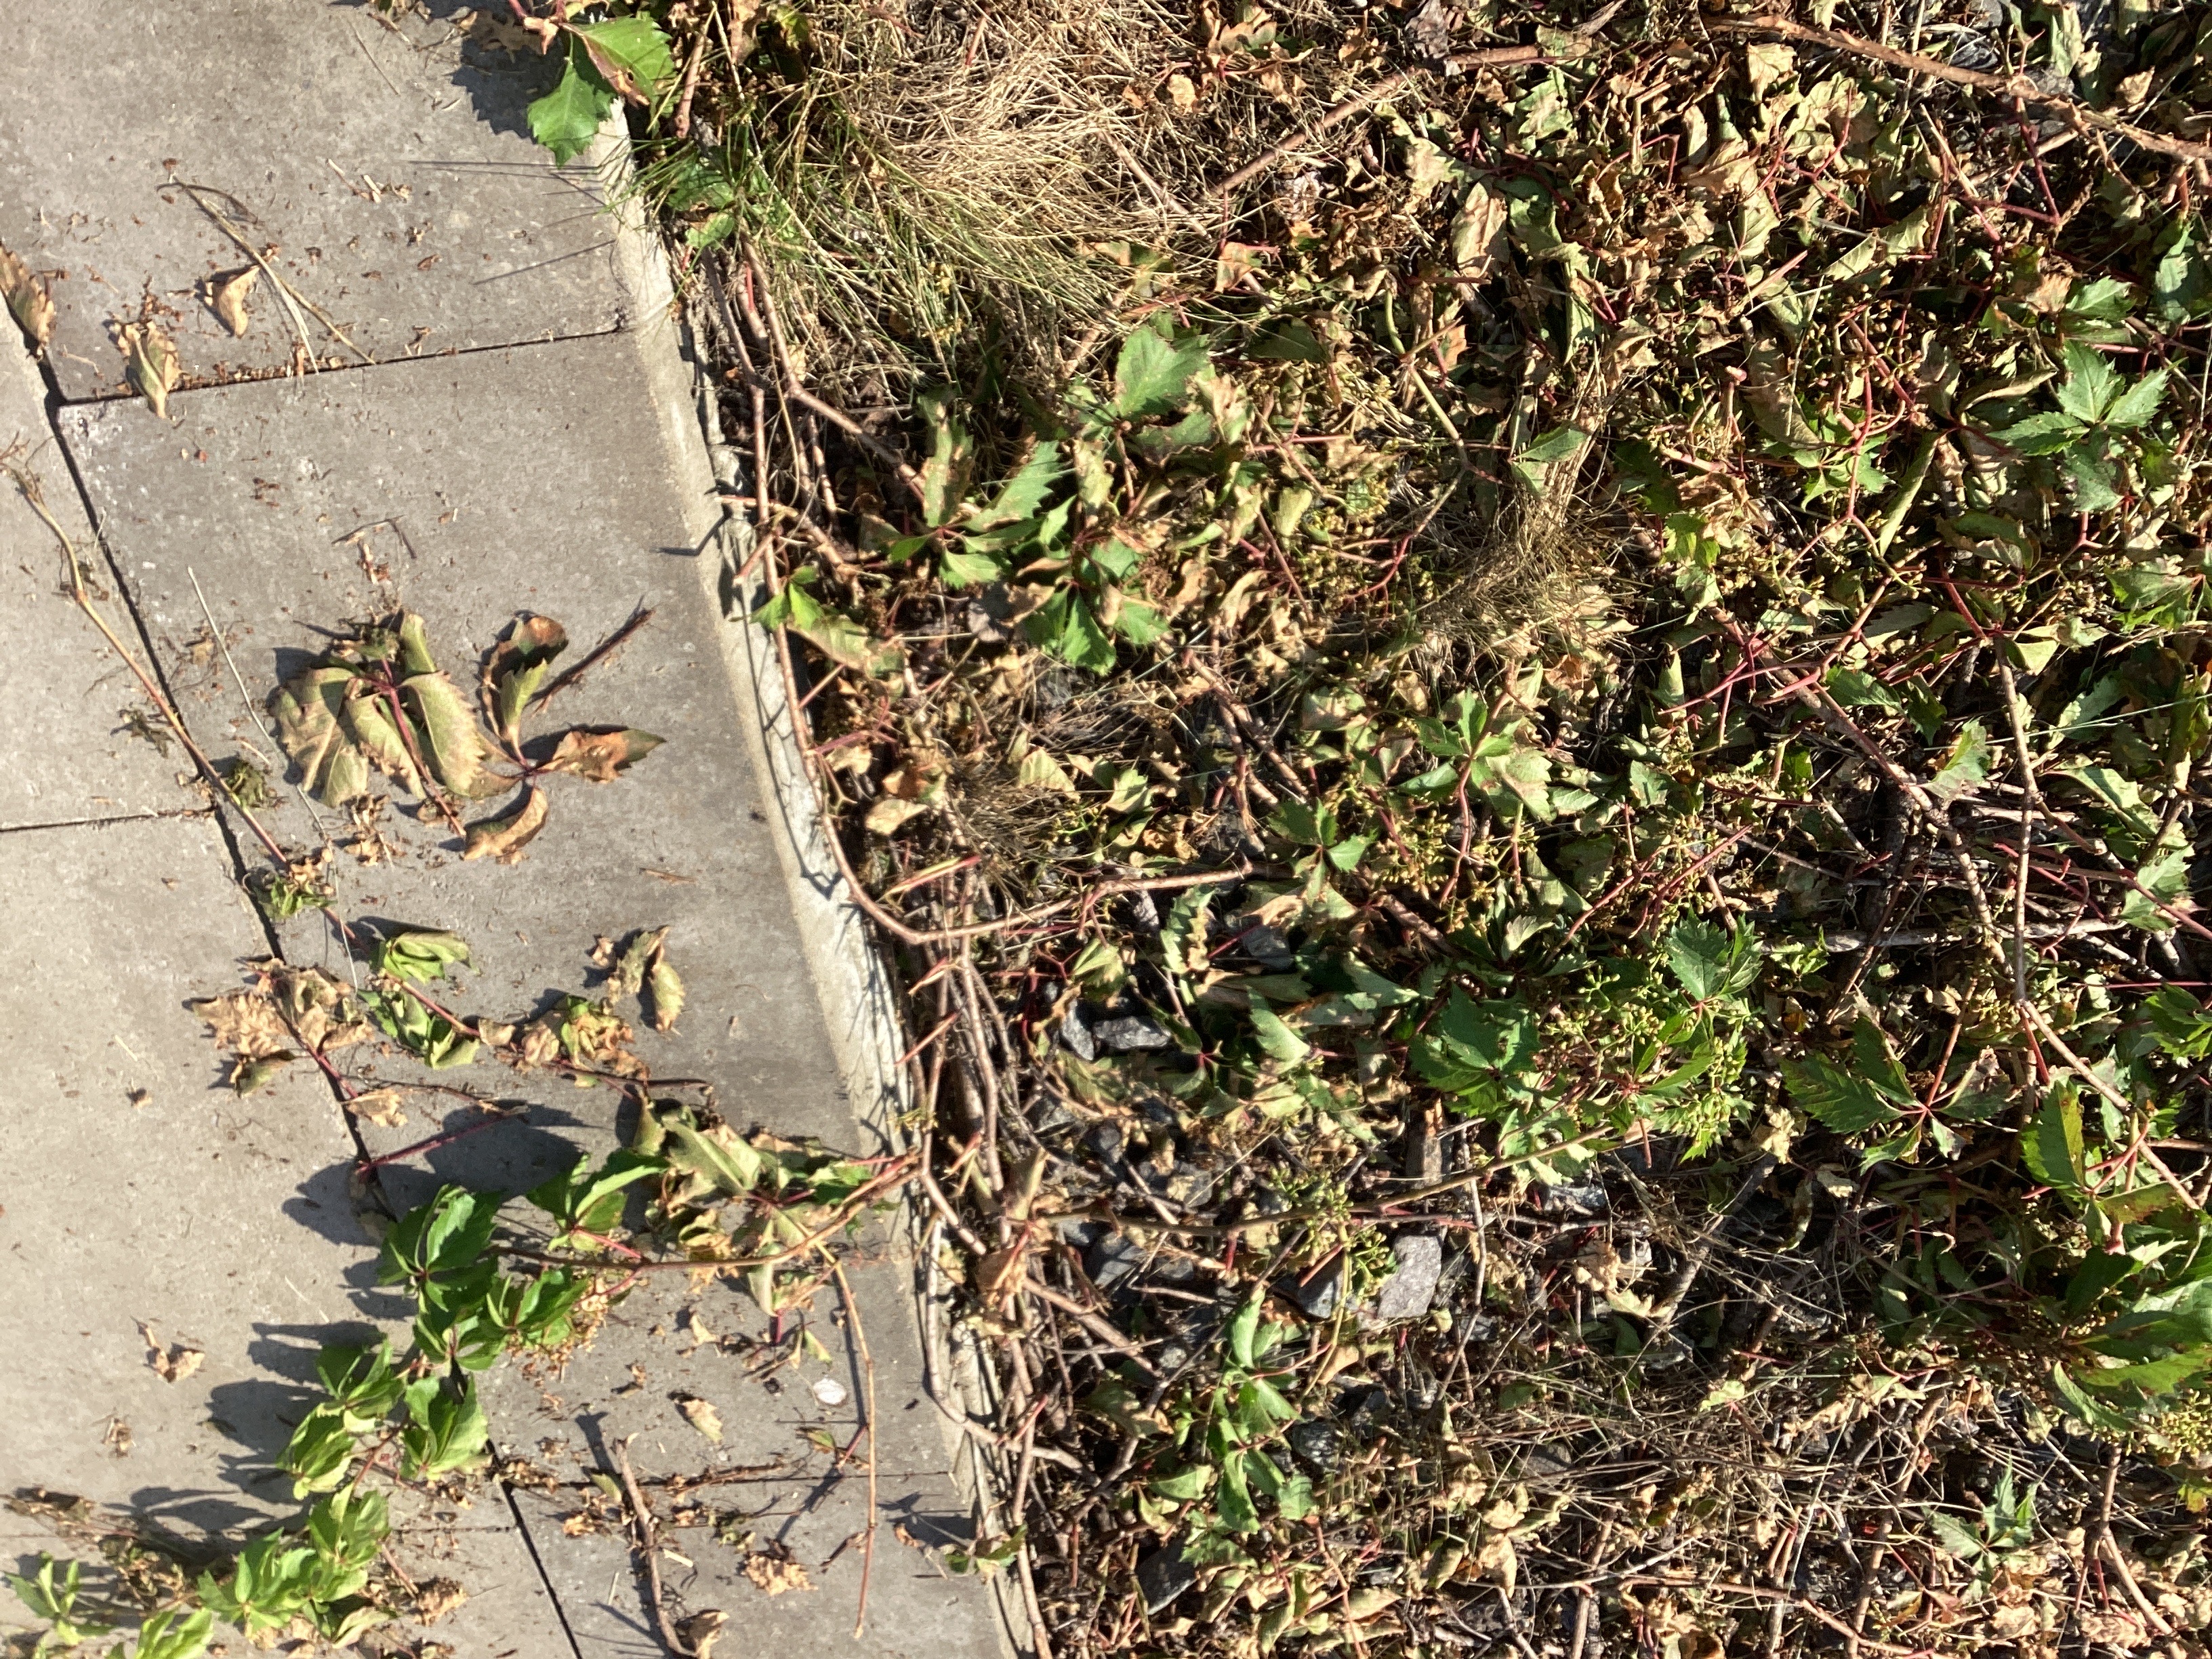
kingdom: Plantae
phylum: Tracheophyta
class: Magnoliopsida
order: Vitales
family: Vitaceae
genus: Parthenocissus
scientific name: Parthenocissus quinquefolia
